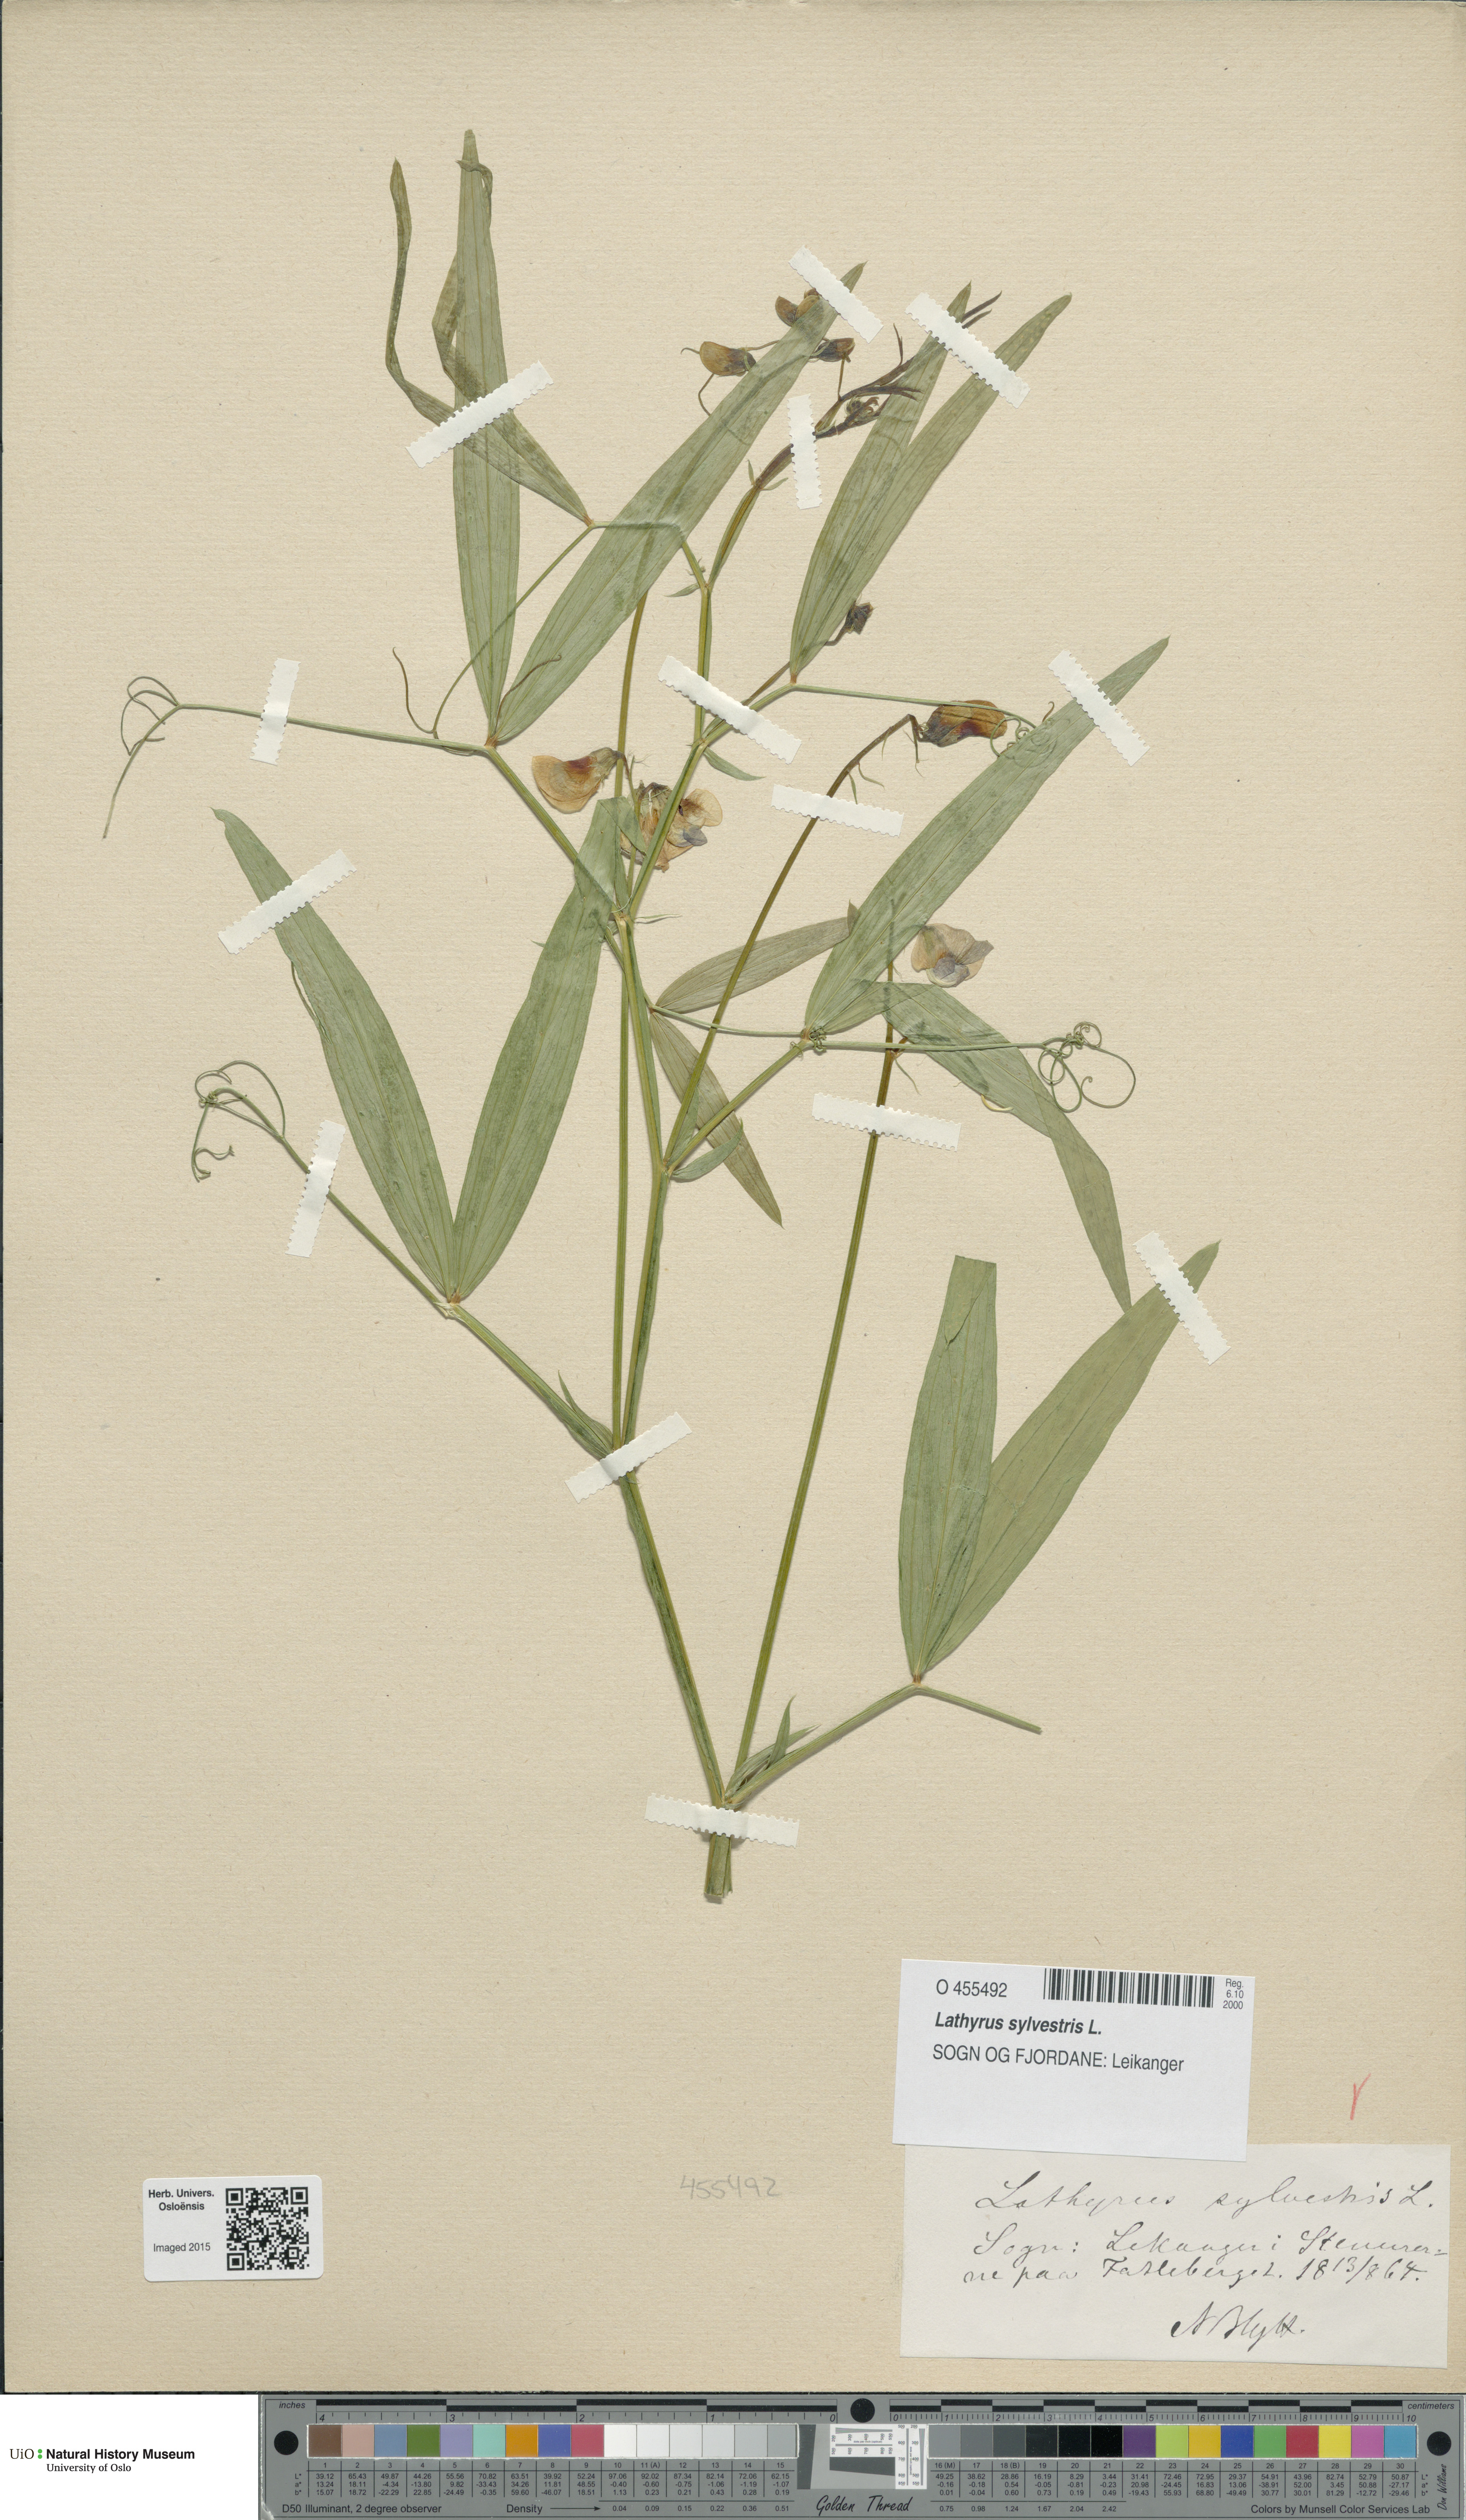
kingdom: Plantae
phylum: Tracheophyta
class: Magnoliopsida
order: Fabales
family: Fabaceae
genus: Lathyrus
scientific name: Lathyrus sylvestris
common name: Flat pea
